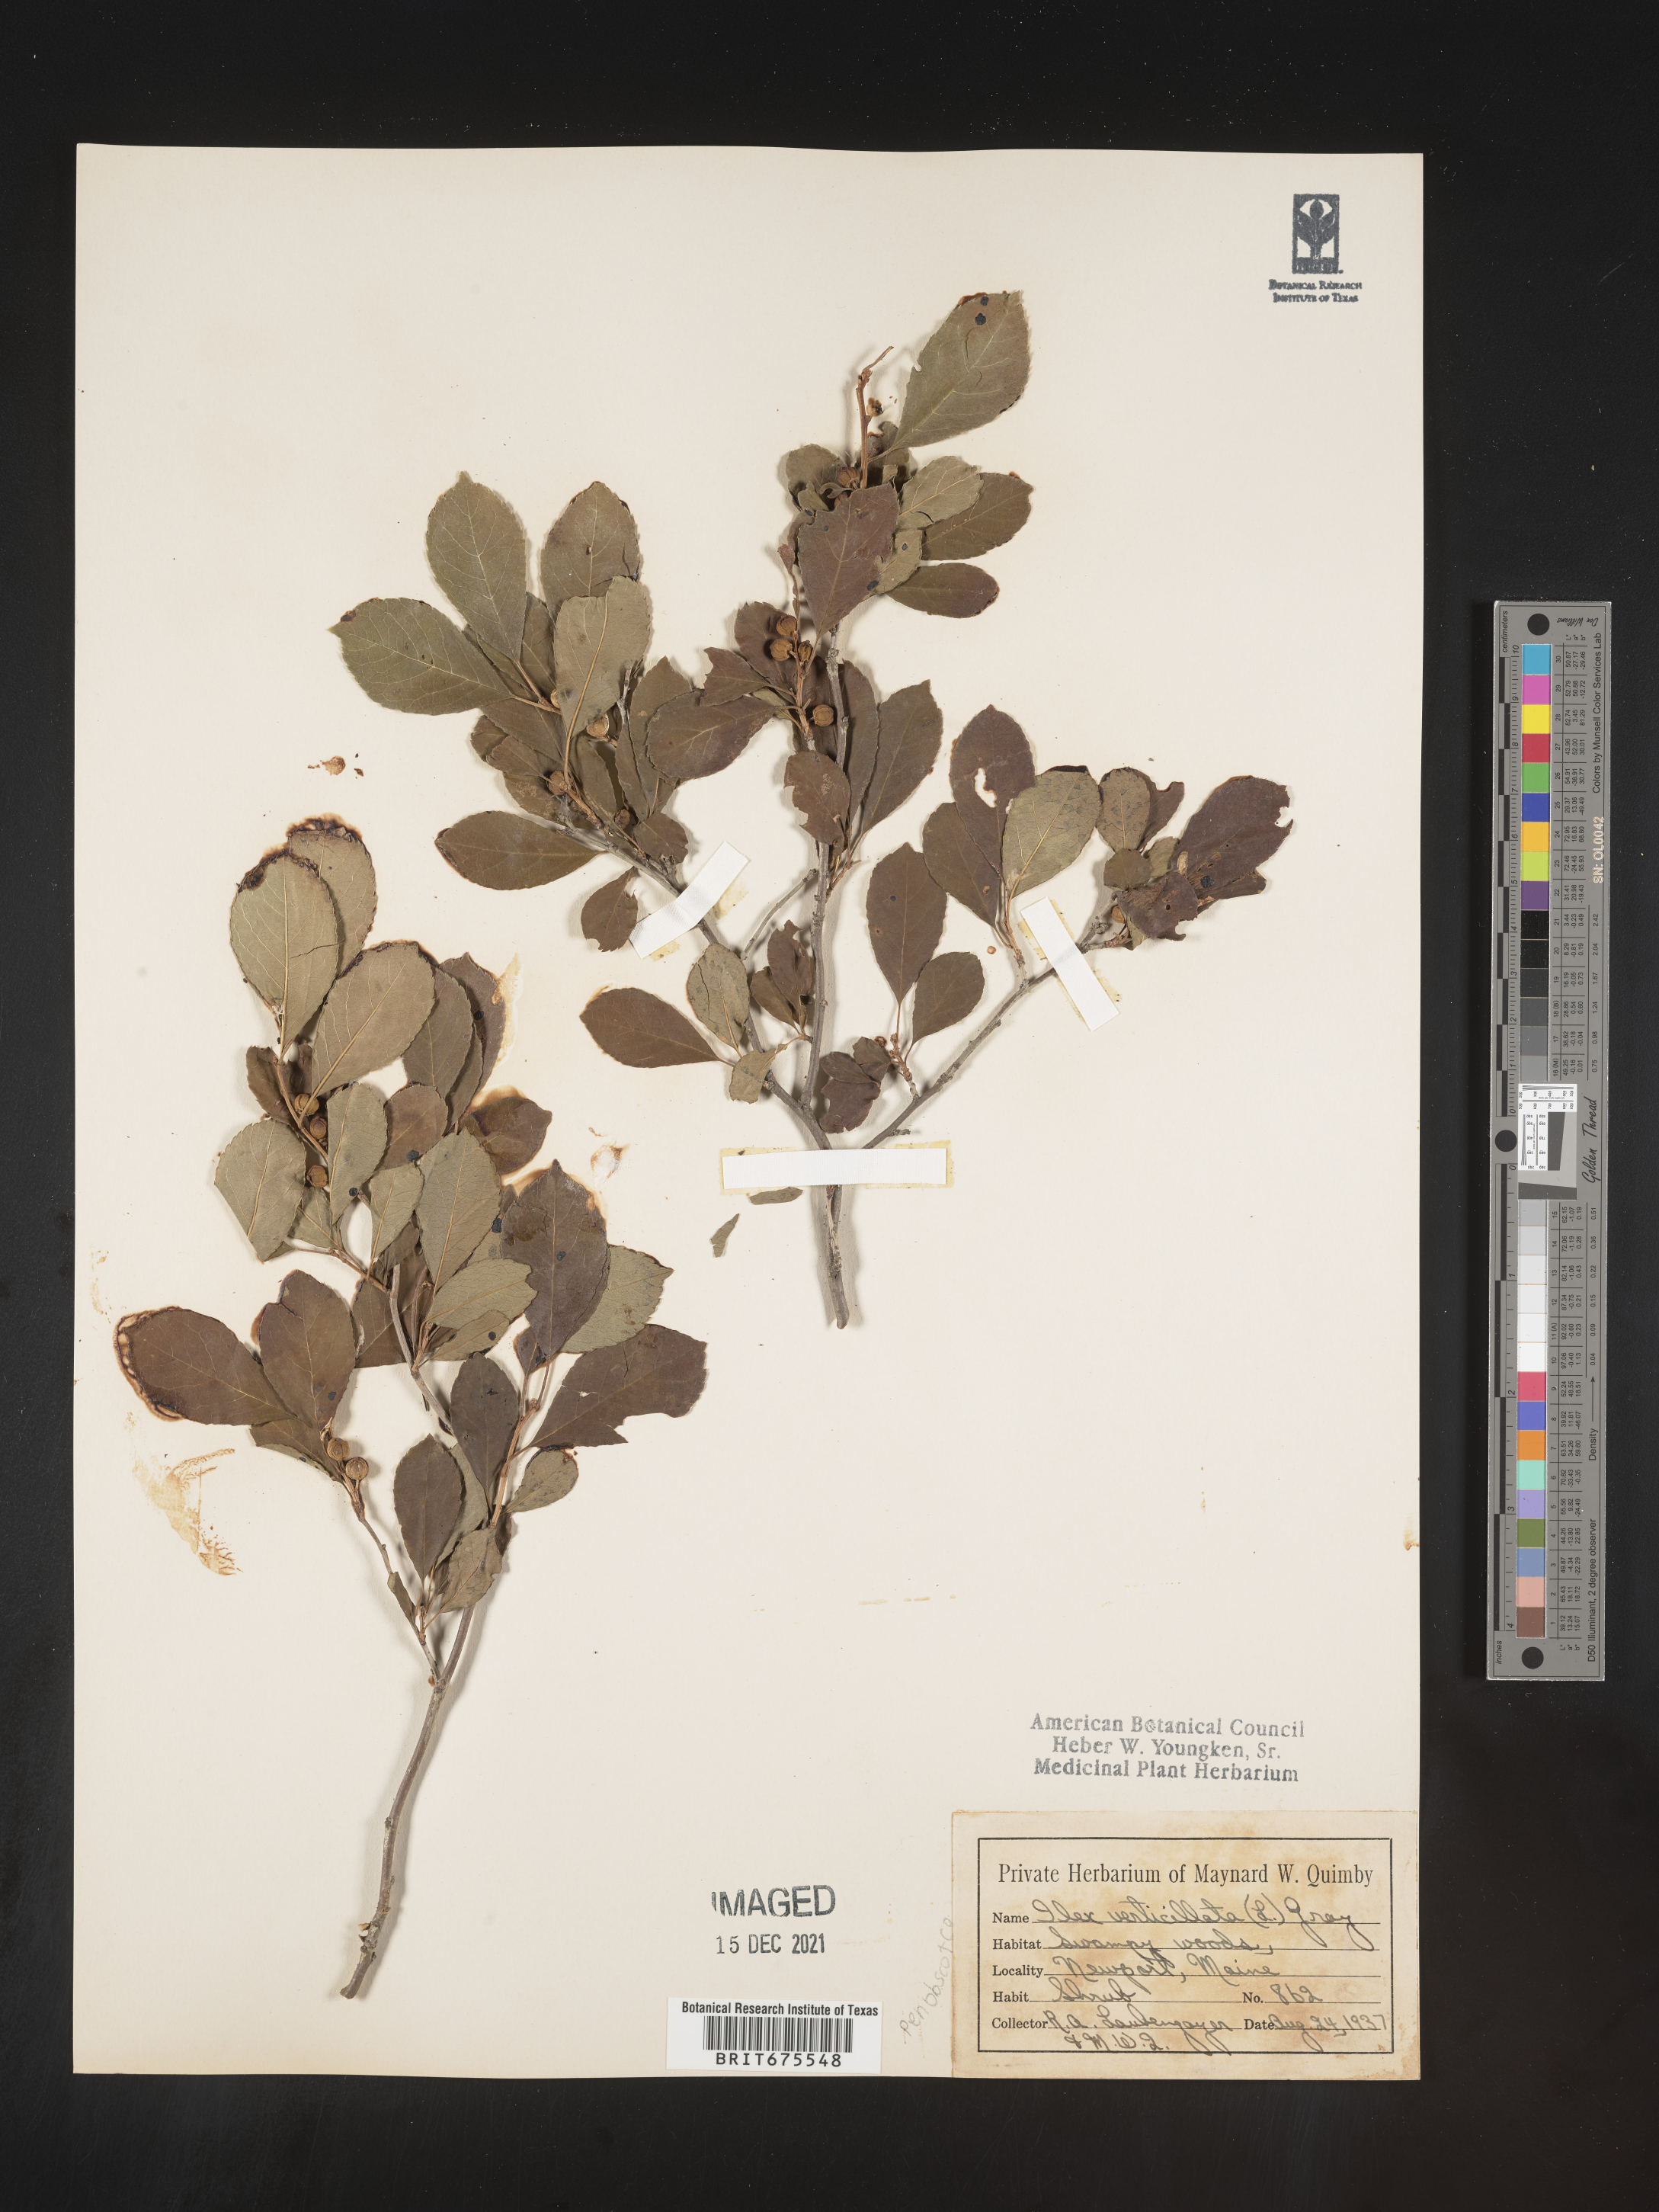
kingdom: Plantae
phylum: Tracheophyta
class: Magnoliopsida
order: Aquifoliales
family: Aquifoliaceae
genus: Ilex
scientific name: Ilex verticillata
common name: Virginia winterberry
